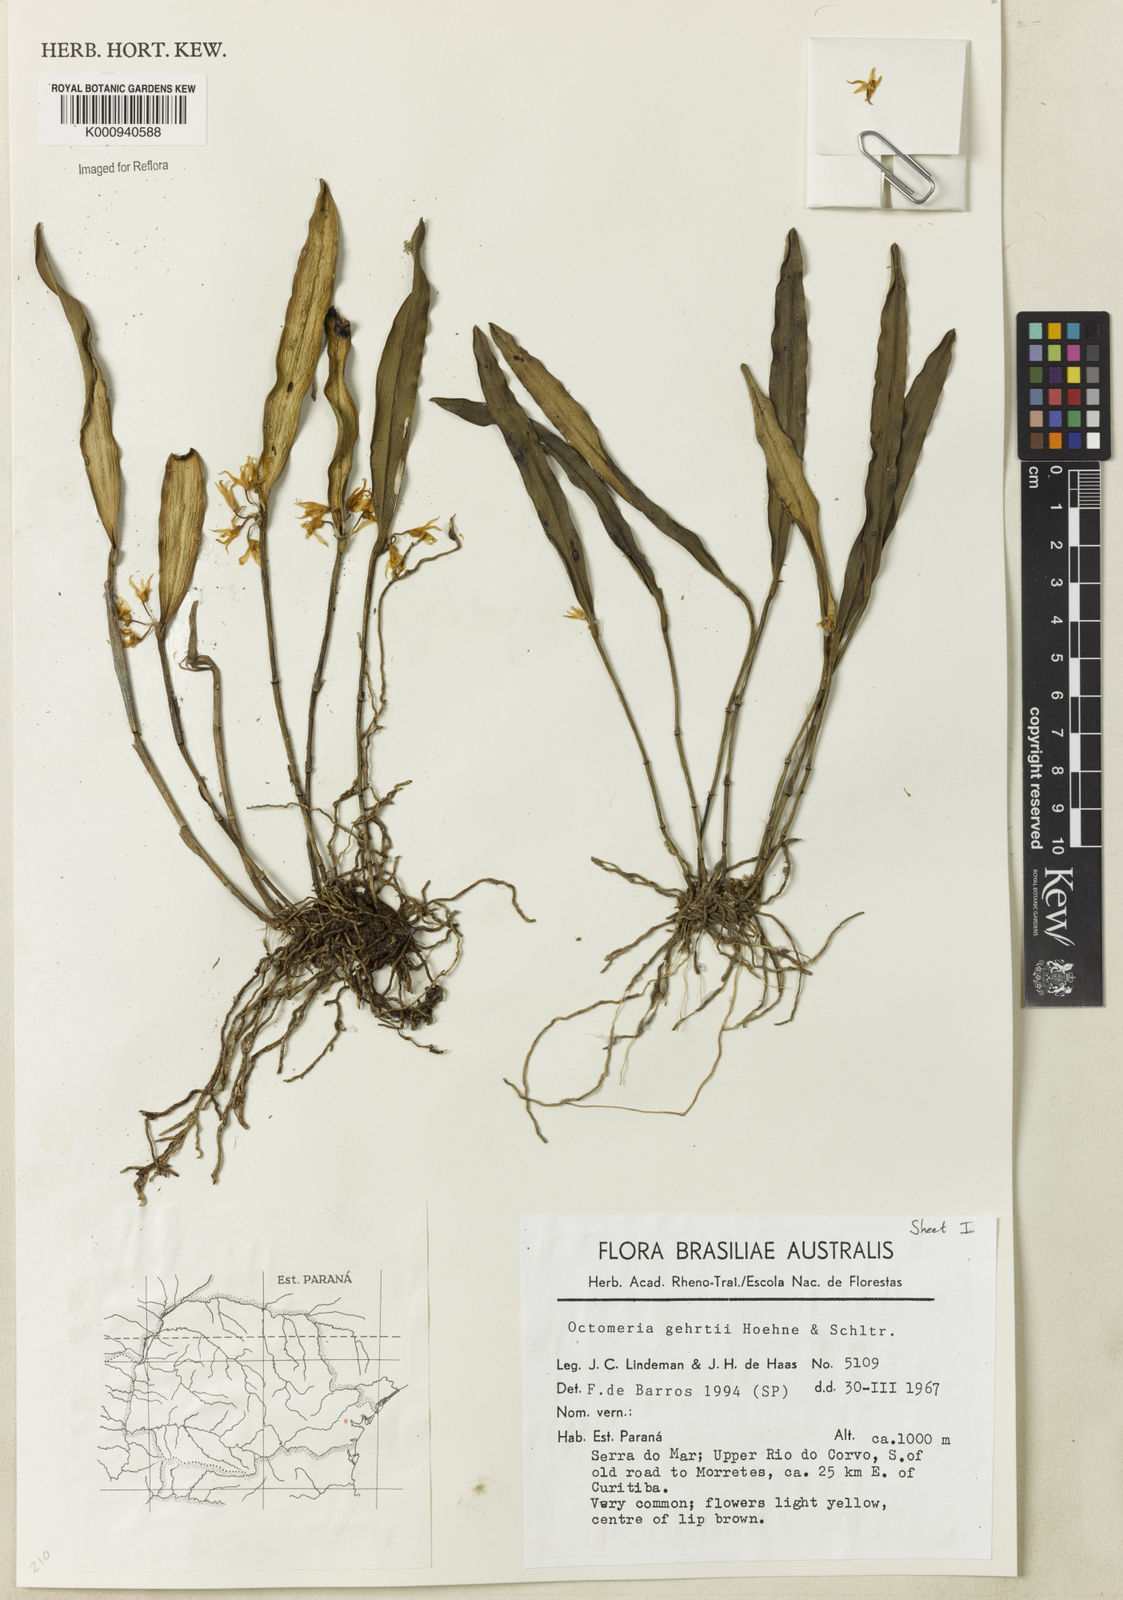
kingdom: Plantae
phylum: Tracheophyta
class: Liliopsida
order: Asparagales
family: Orchidaceae
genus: Octomeria
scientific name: Octomeria gehrtii
